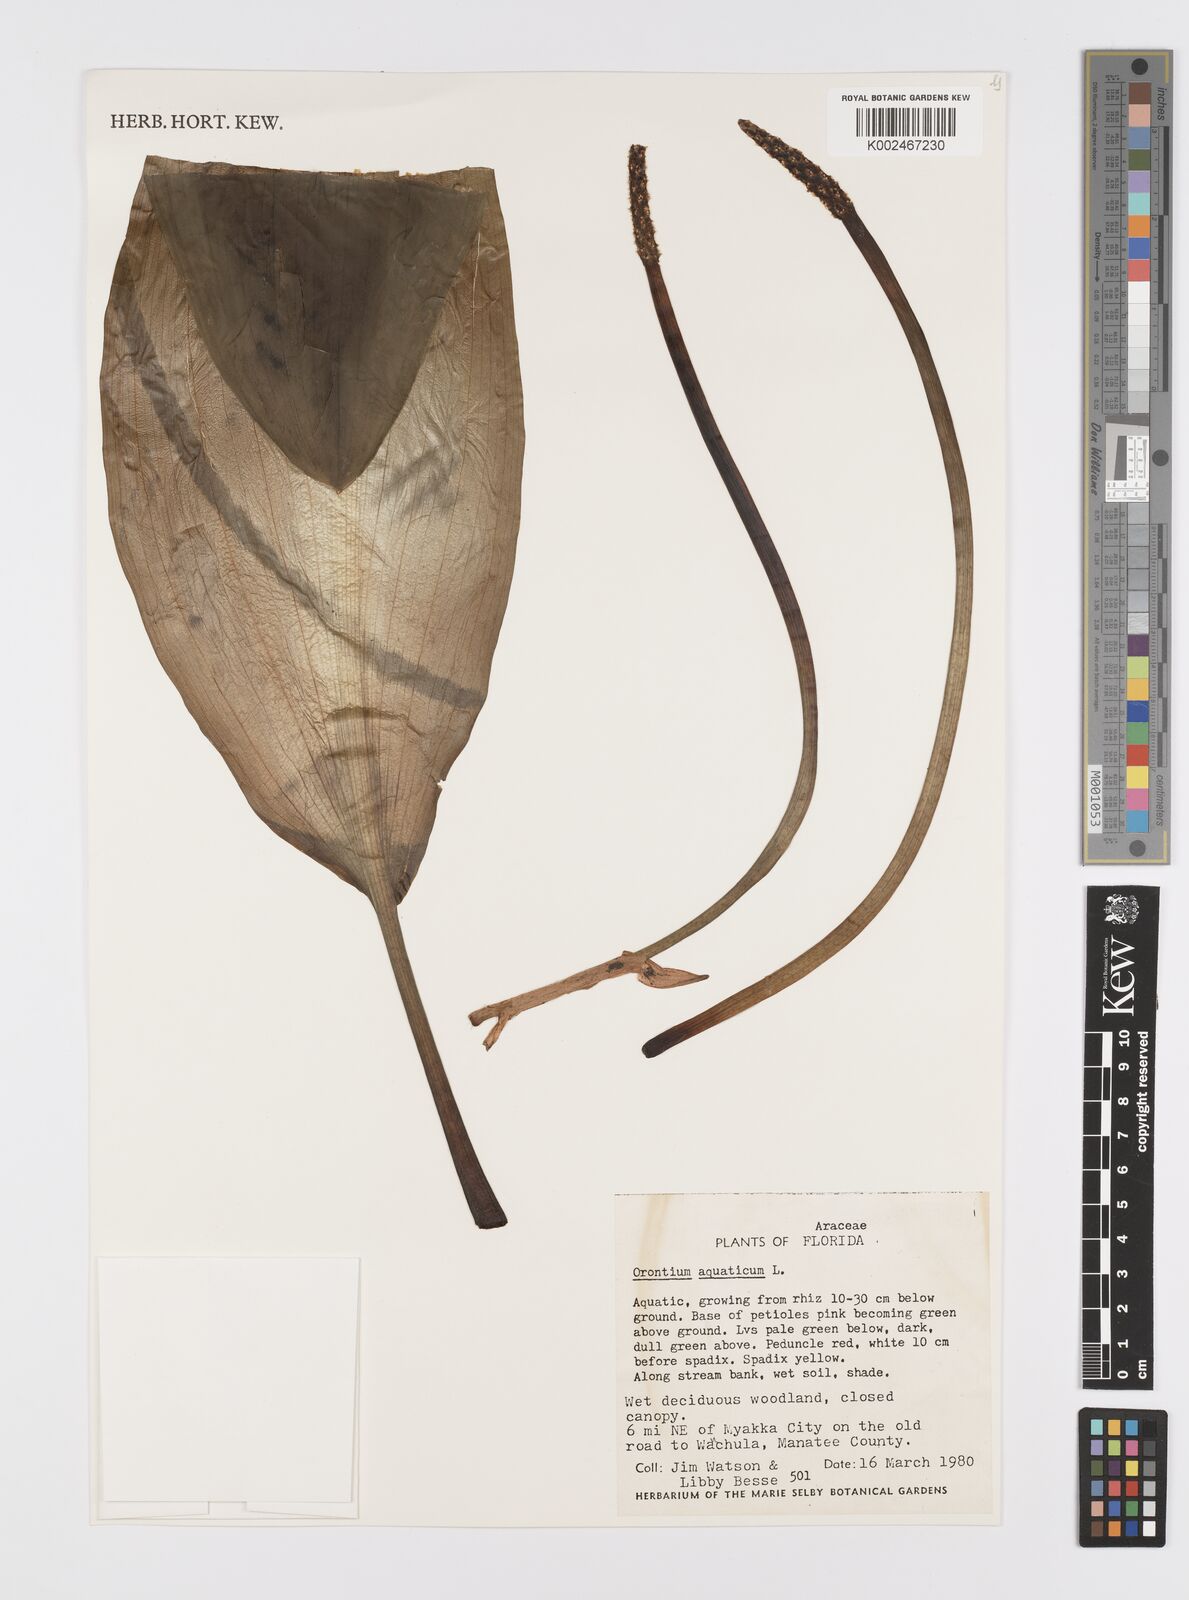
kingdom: Plantae
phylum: Tracheophyta
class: Liliopsida
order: Alismatales
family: Araceae
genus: Orontium
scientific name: Orontium aquaticum
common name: Golden-club
